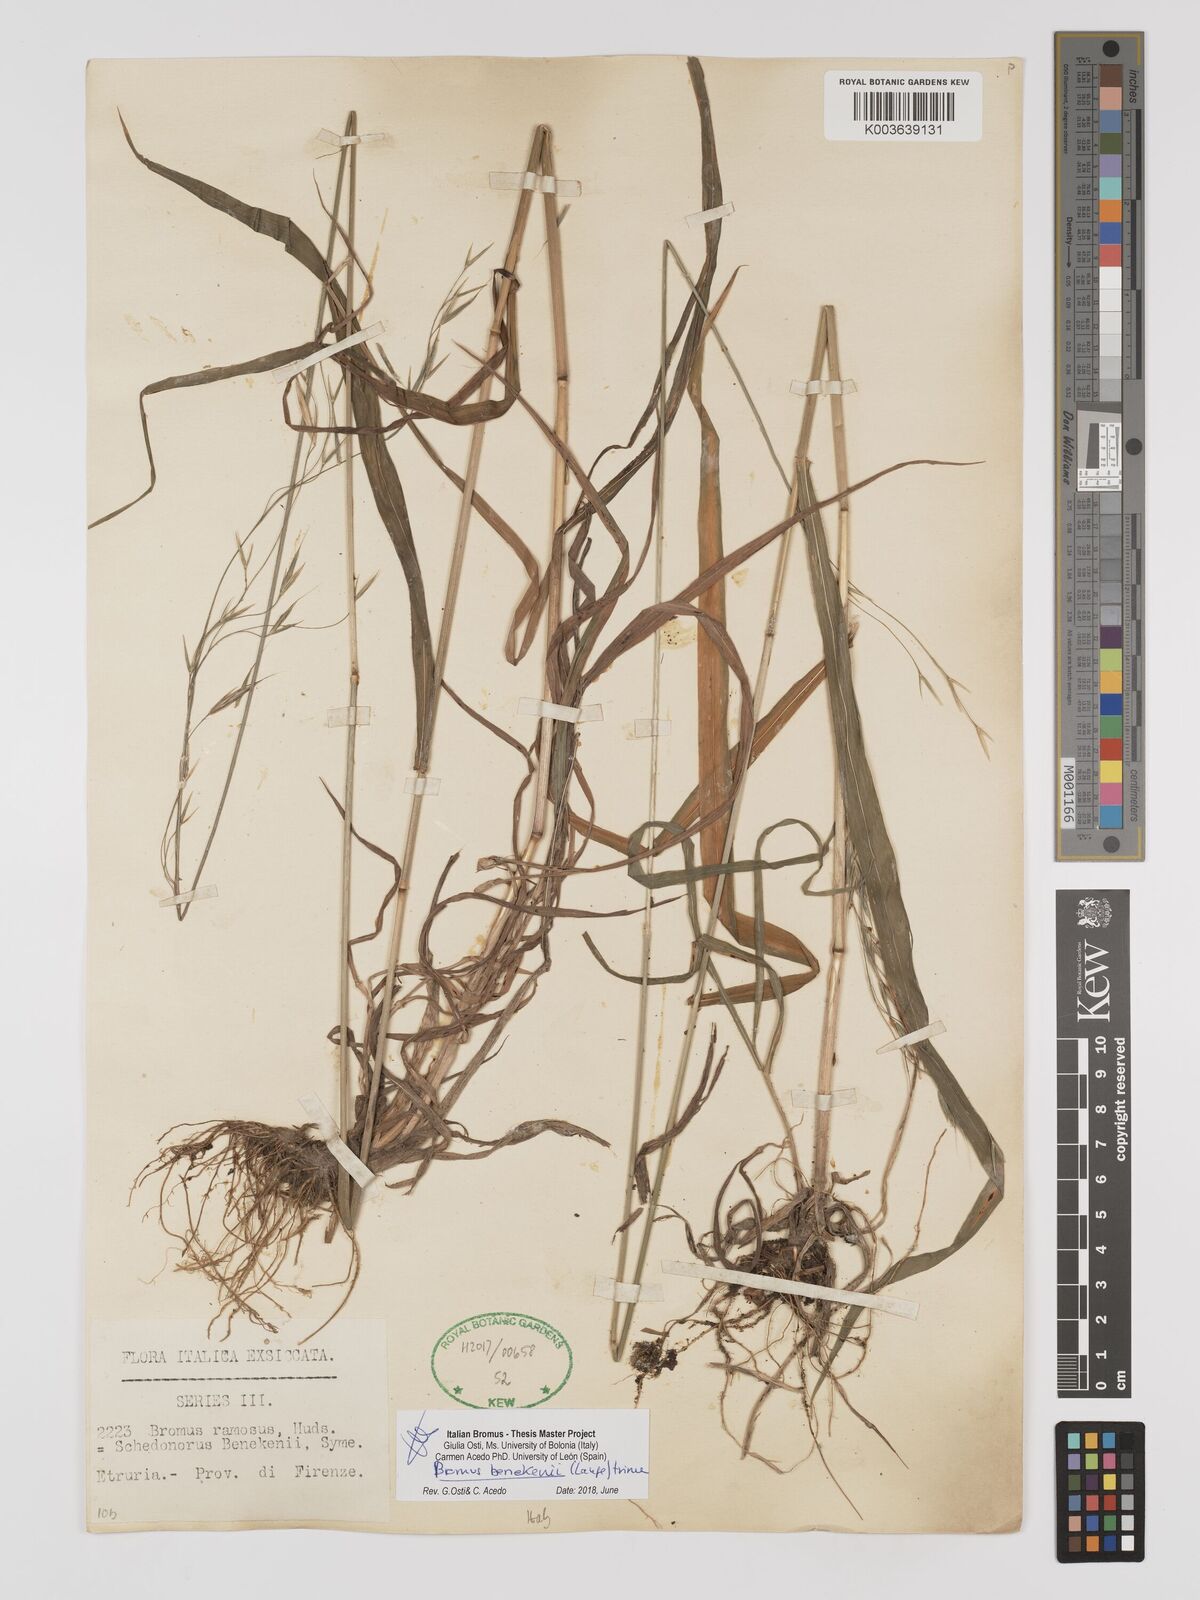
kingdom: Plantae
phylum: Tracheophyta
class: Liliopsida
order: Poales
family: Poaceae
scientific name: Poaceae
